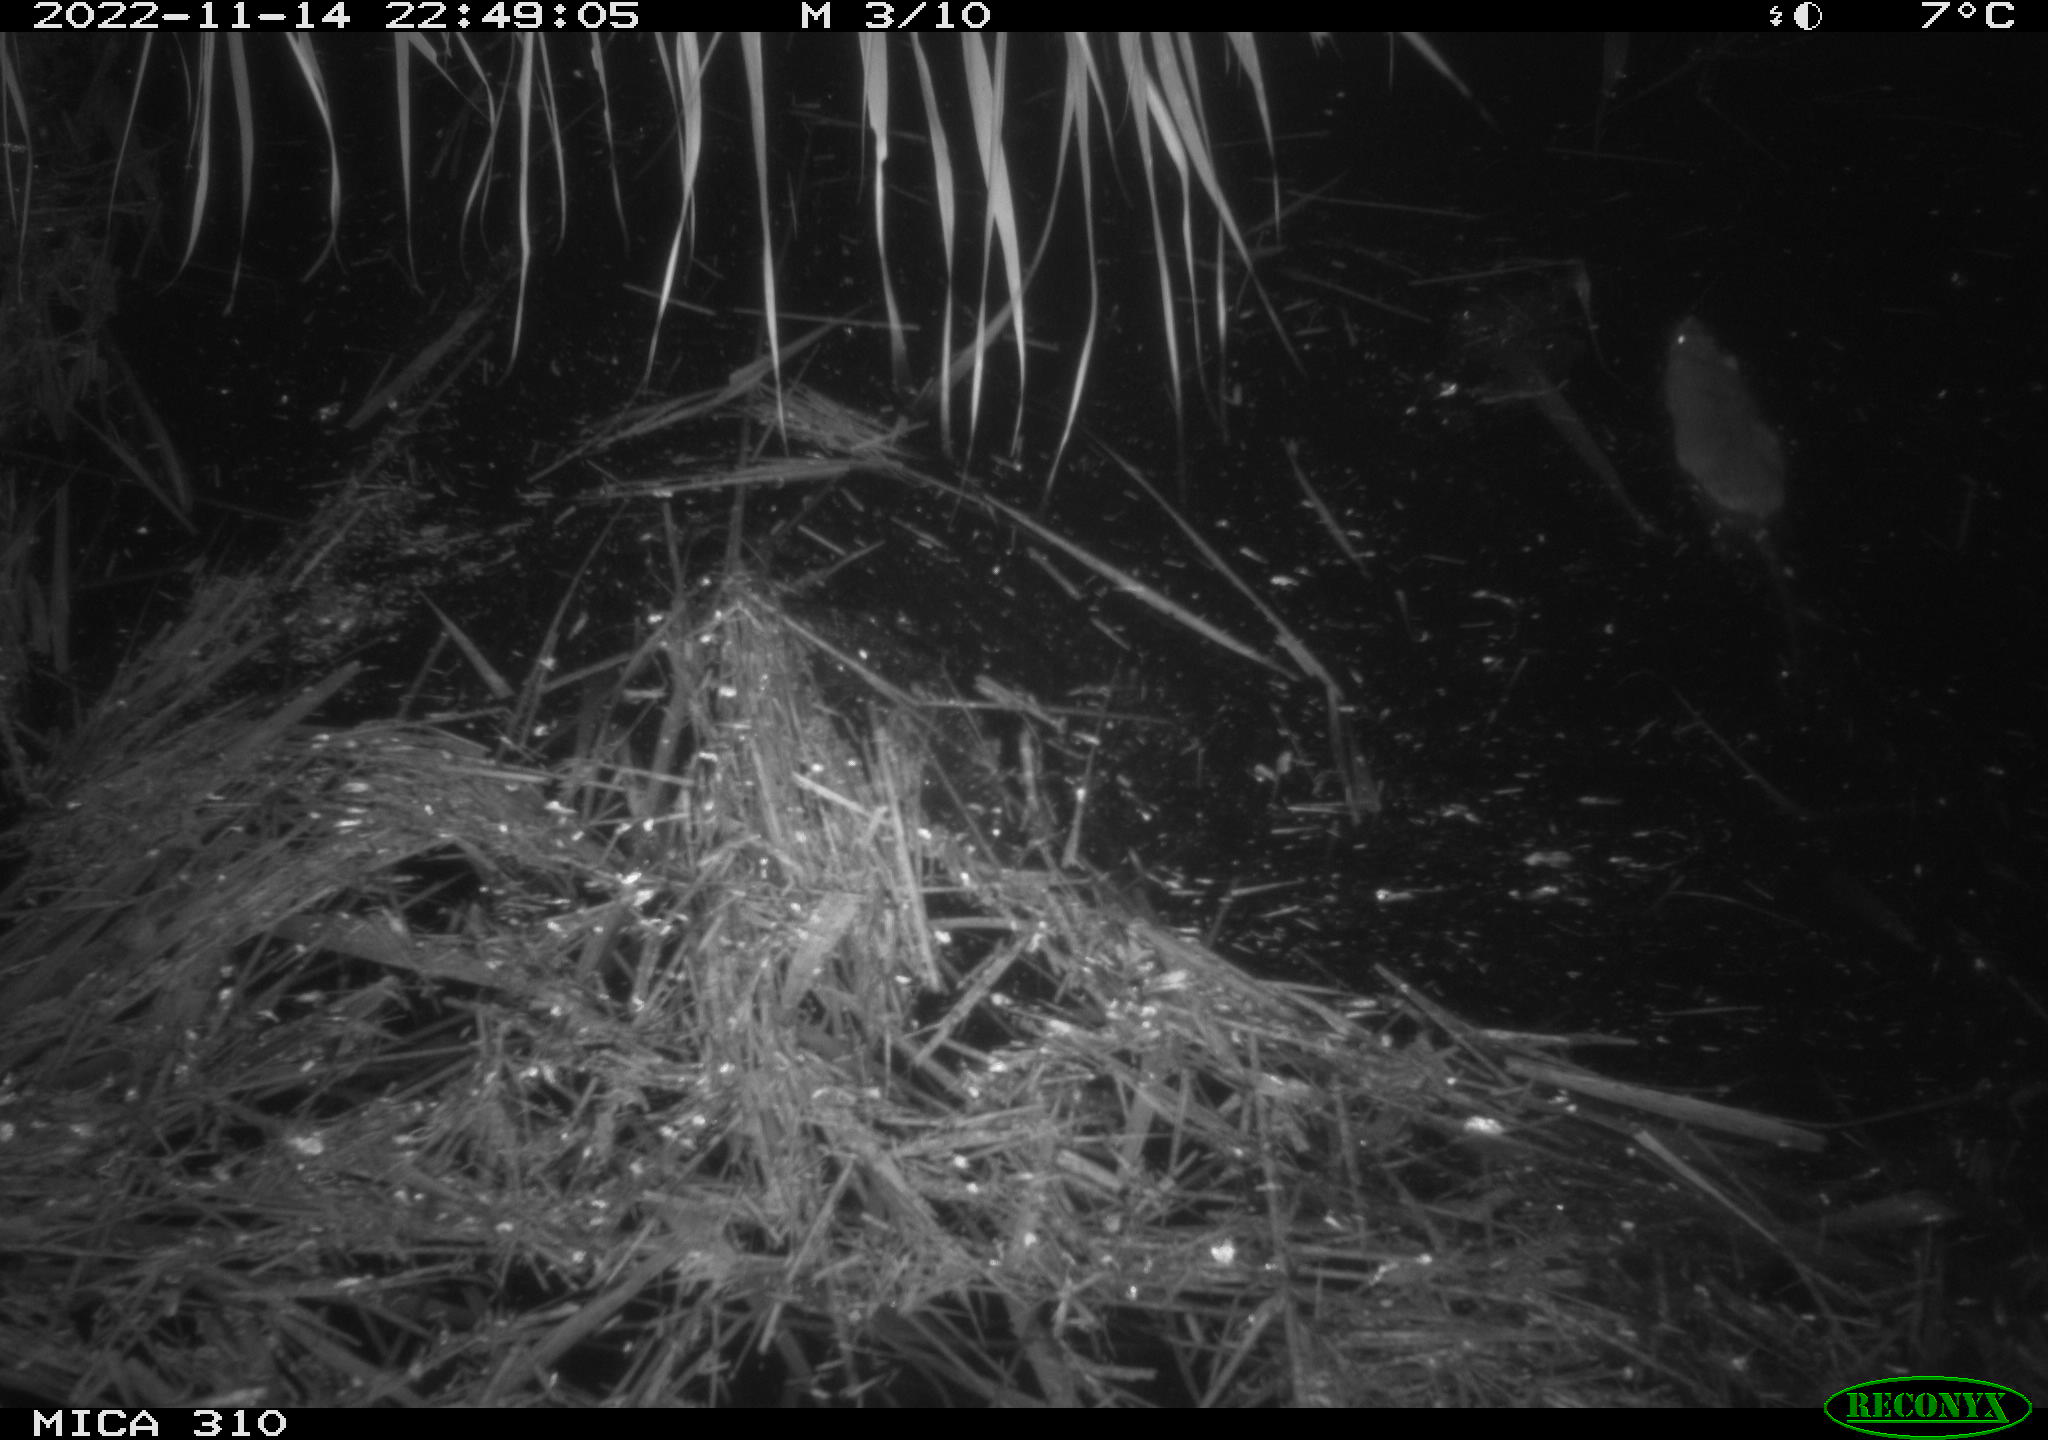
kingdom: Animalia
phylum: Chordata
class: Mammalia
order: Rodentia
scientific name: Rodentia
